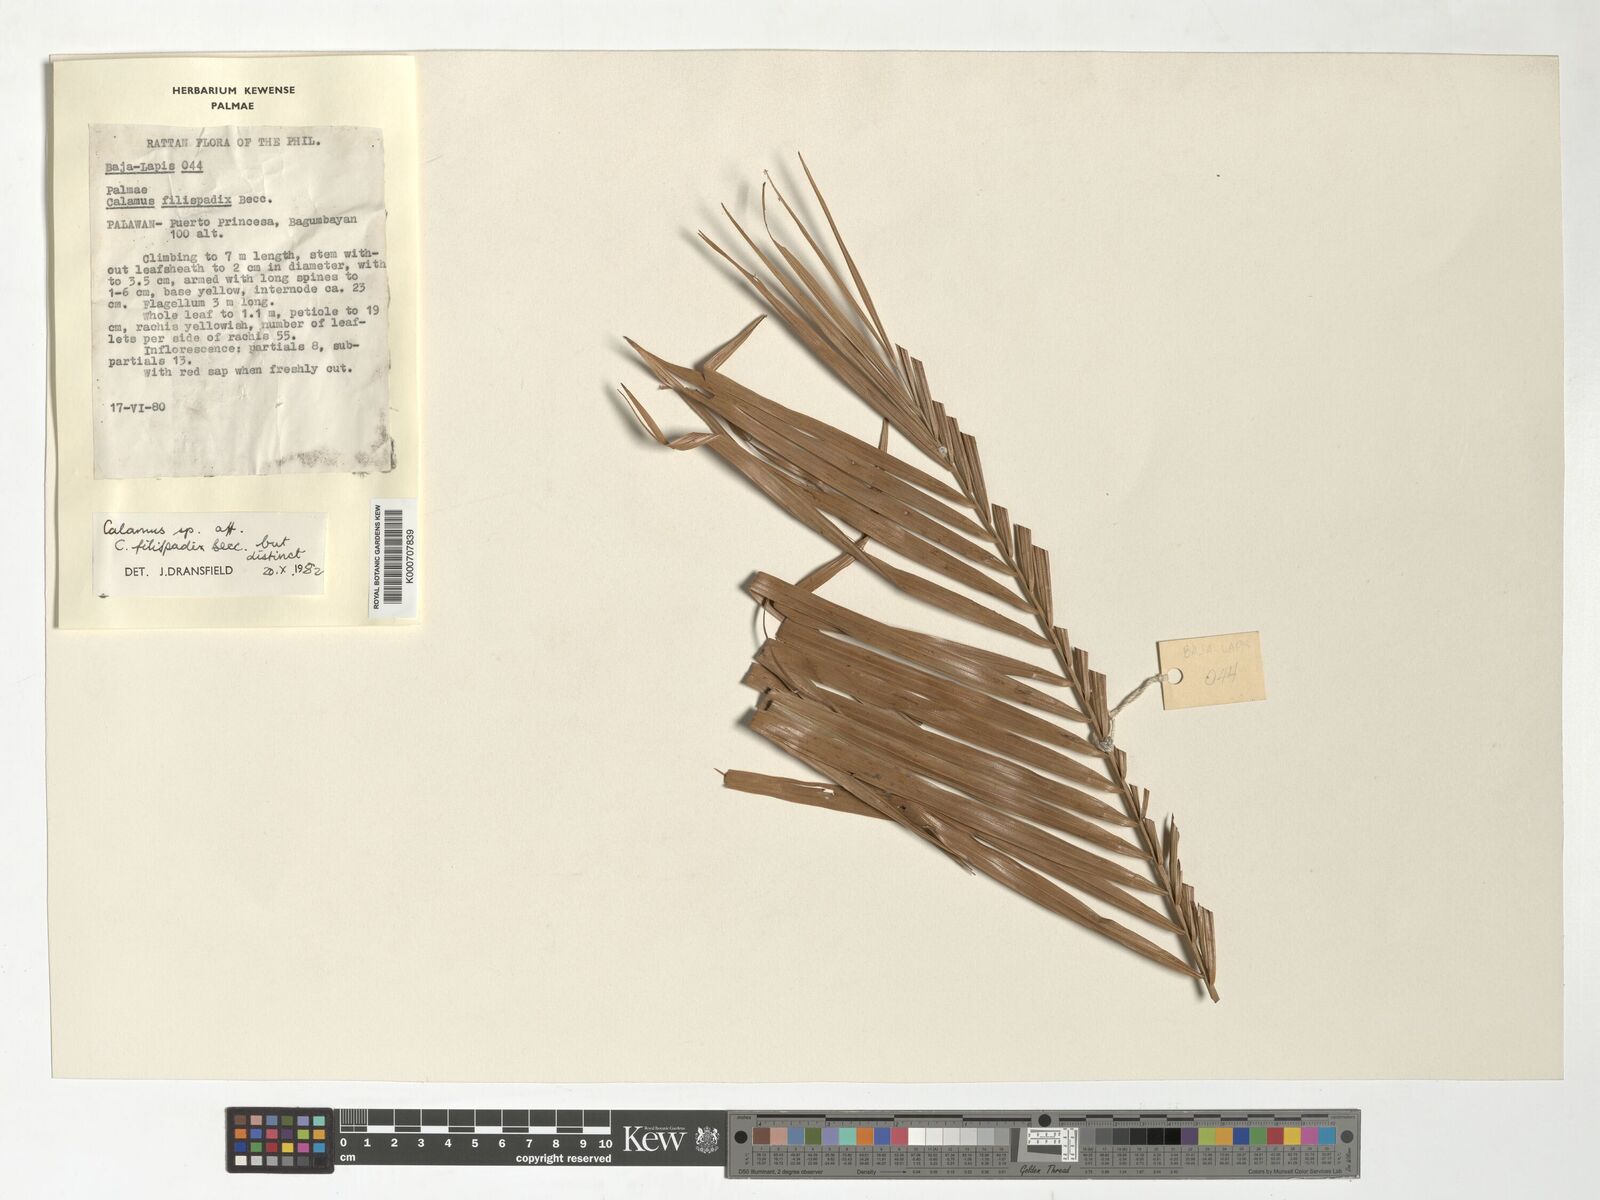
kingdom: Plantae
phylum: Tracheophyta
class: Liliopsida
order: Arecales
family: Arecaceae
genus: Calamus
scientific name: Calamus filispadix
